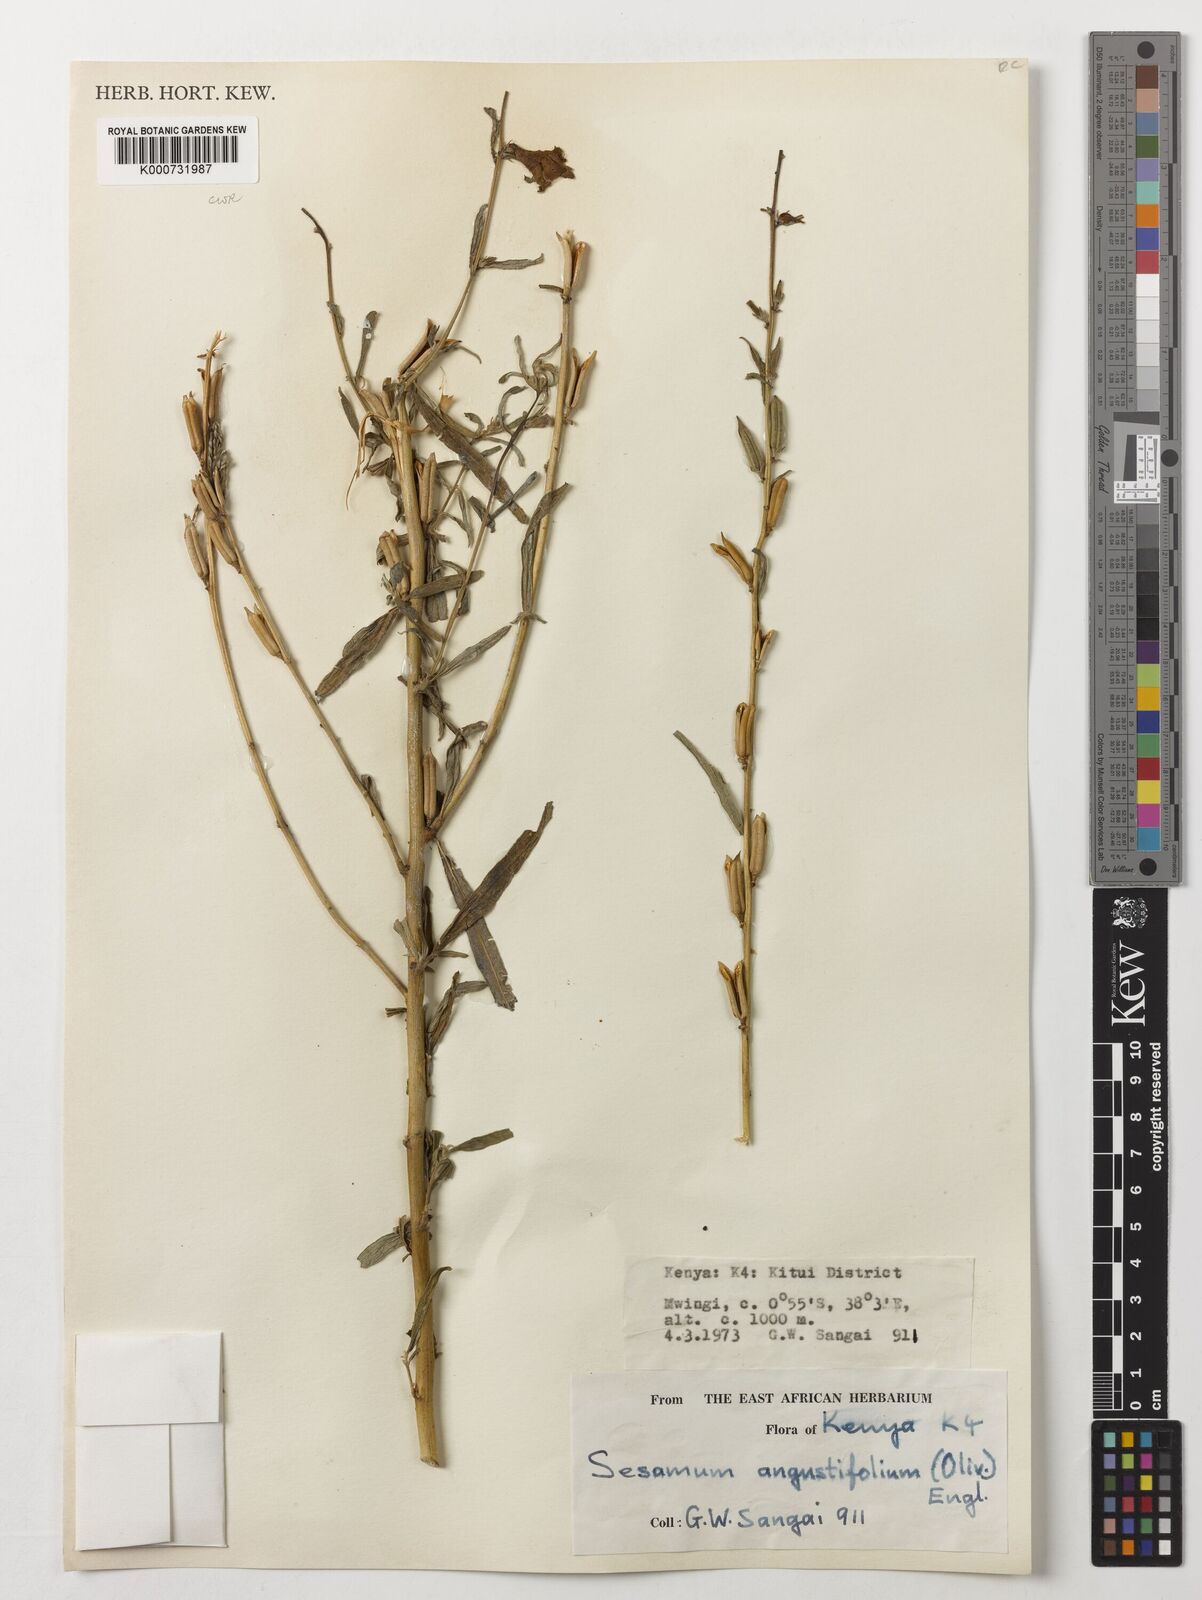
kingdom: Plantae
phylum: Tracheophyta
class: Magnoliopsida
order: Lamiales
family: Pedaliaceae
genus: Sesamum
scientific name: Sesamum angustifolium
